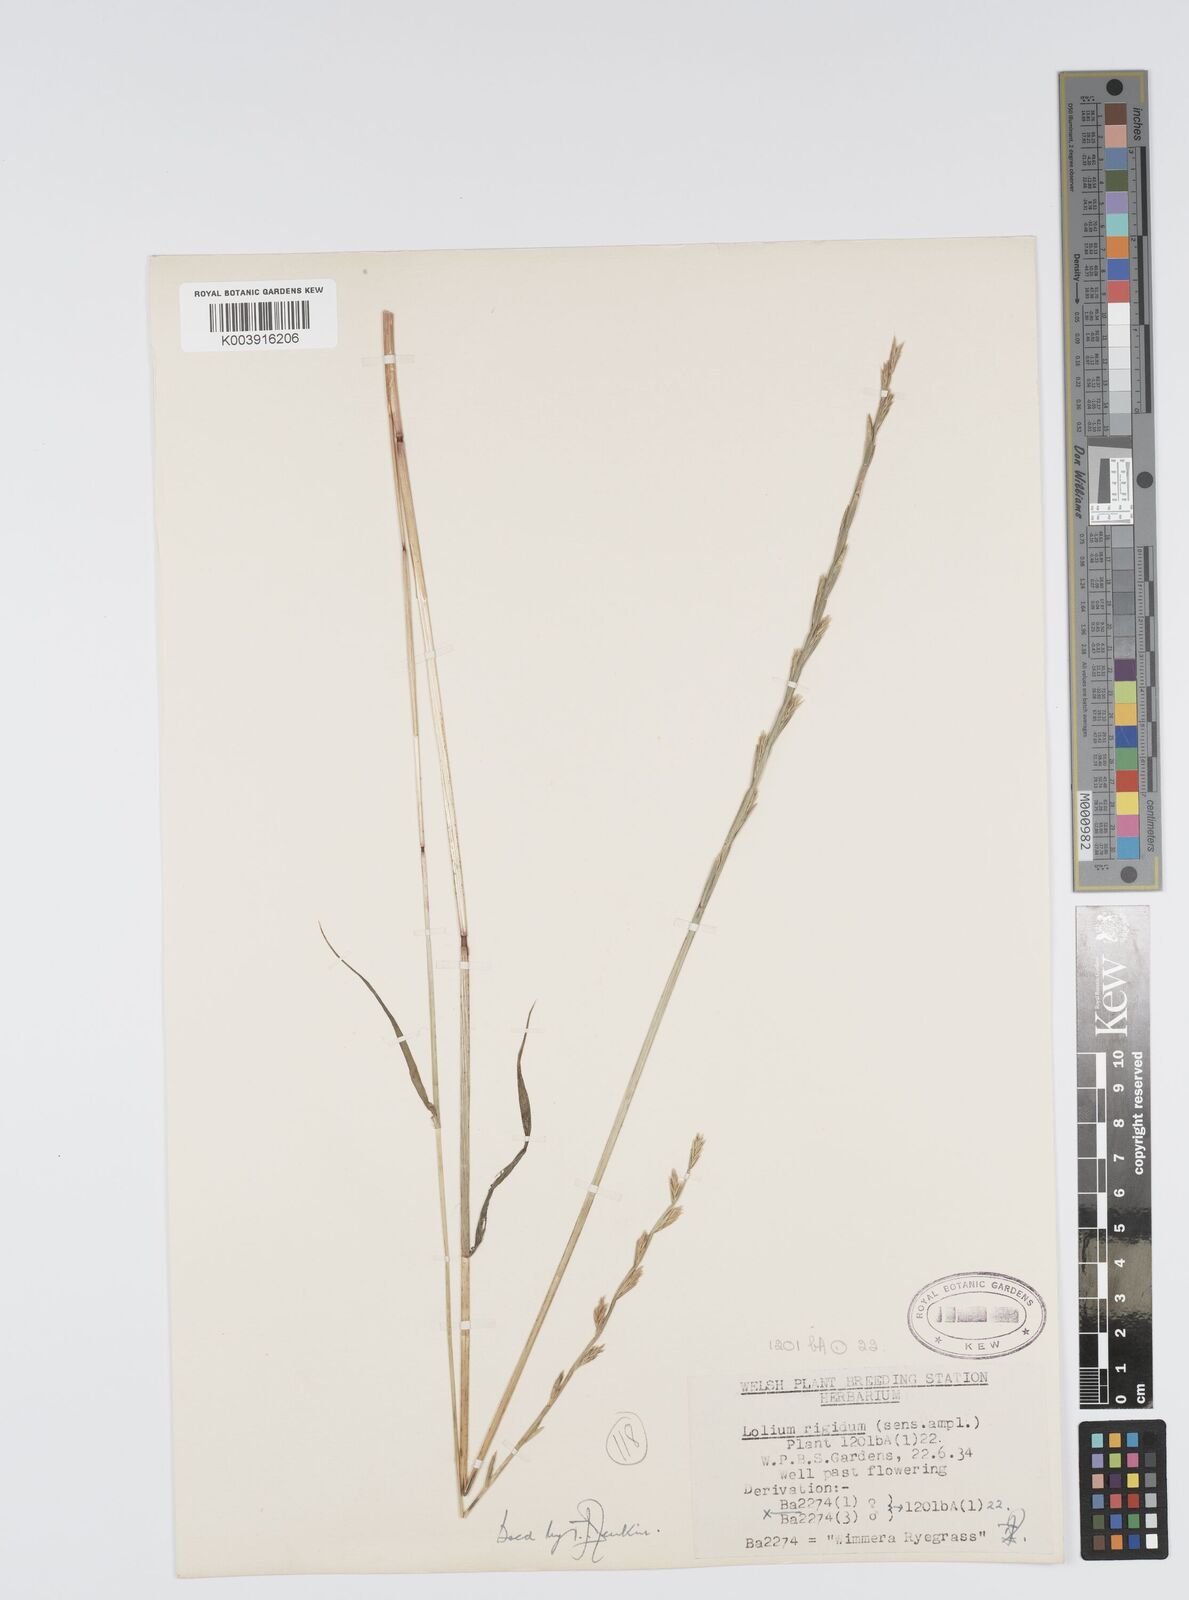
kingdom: Plantae
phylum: Tracheophyta
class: Liliopsida
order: Poales
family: Poaceae
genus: Lolium
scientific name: Lolium rigidum
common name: Wimmera ryegrass
